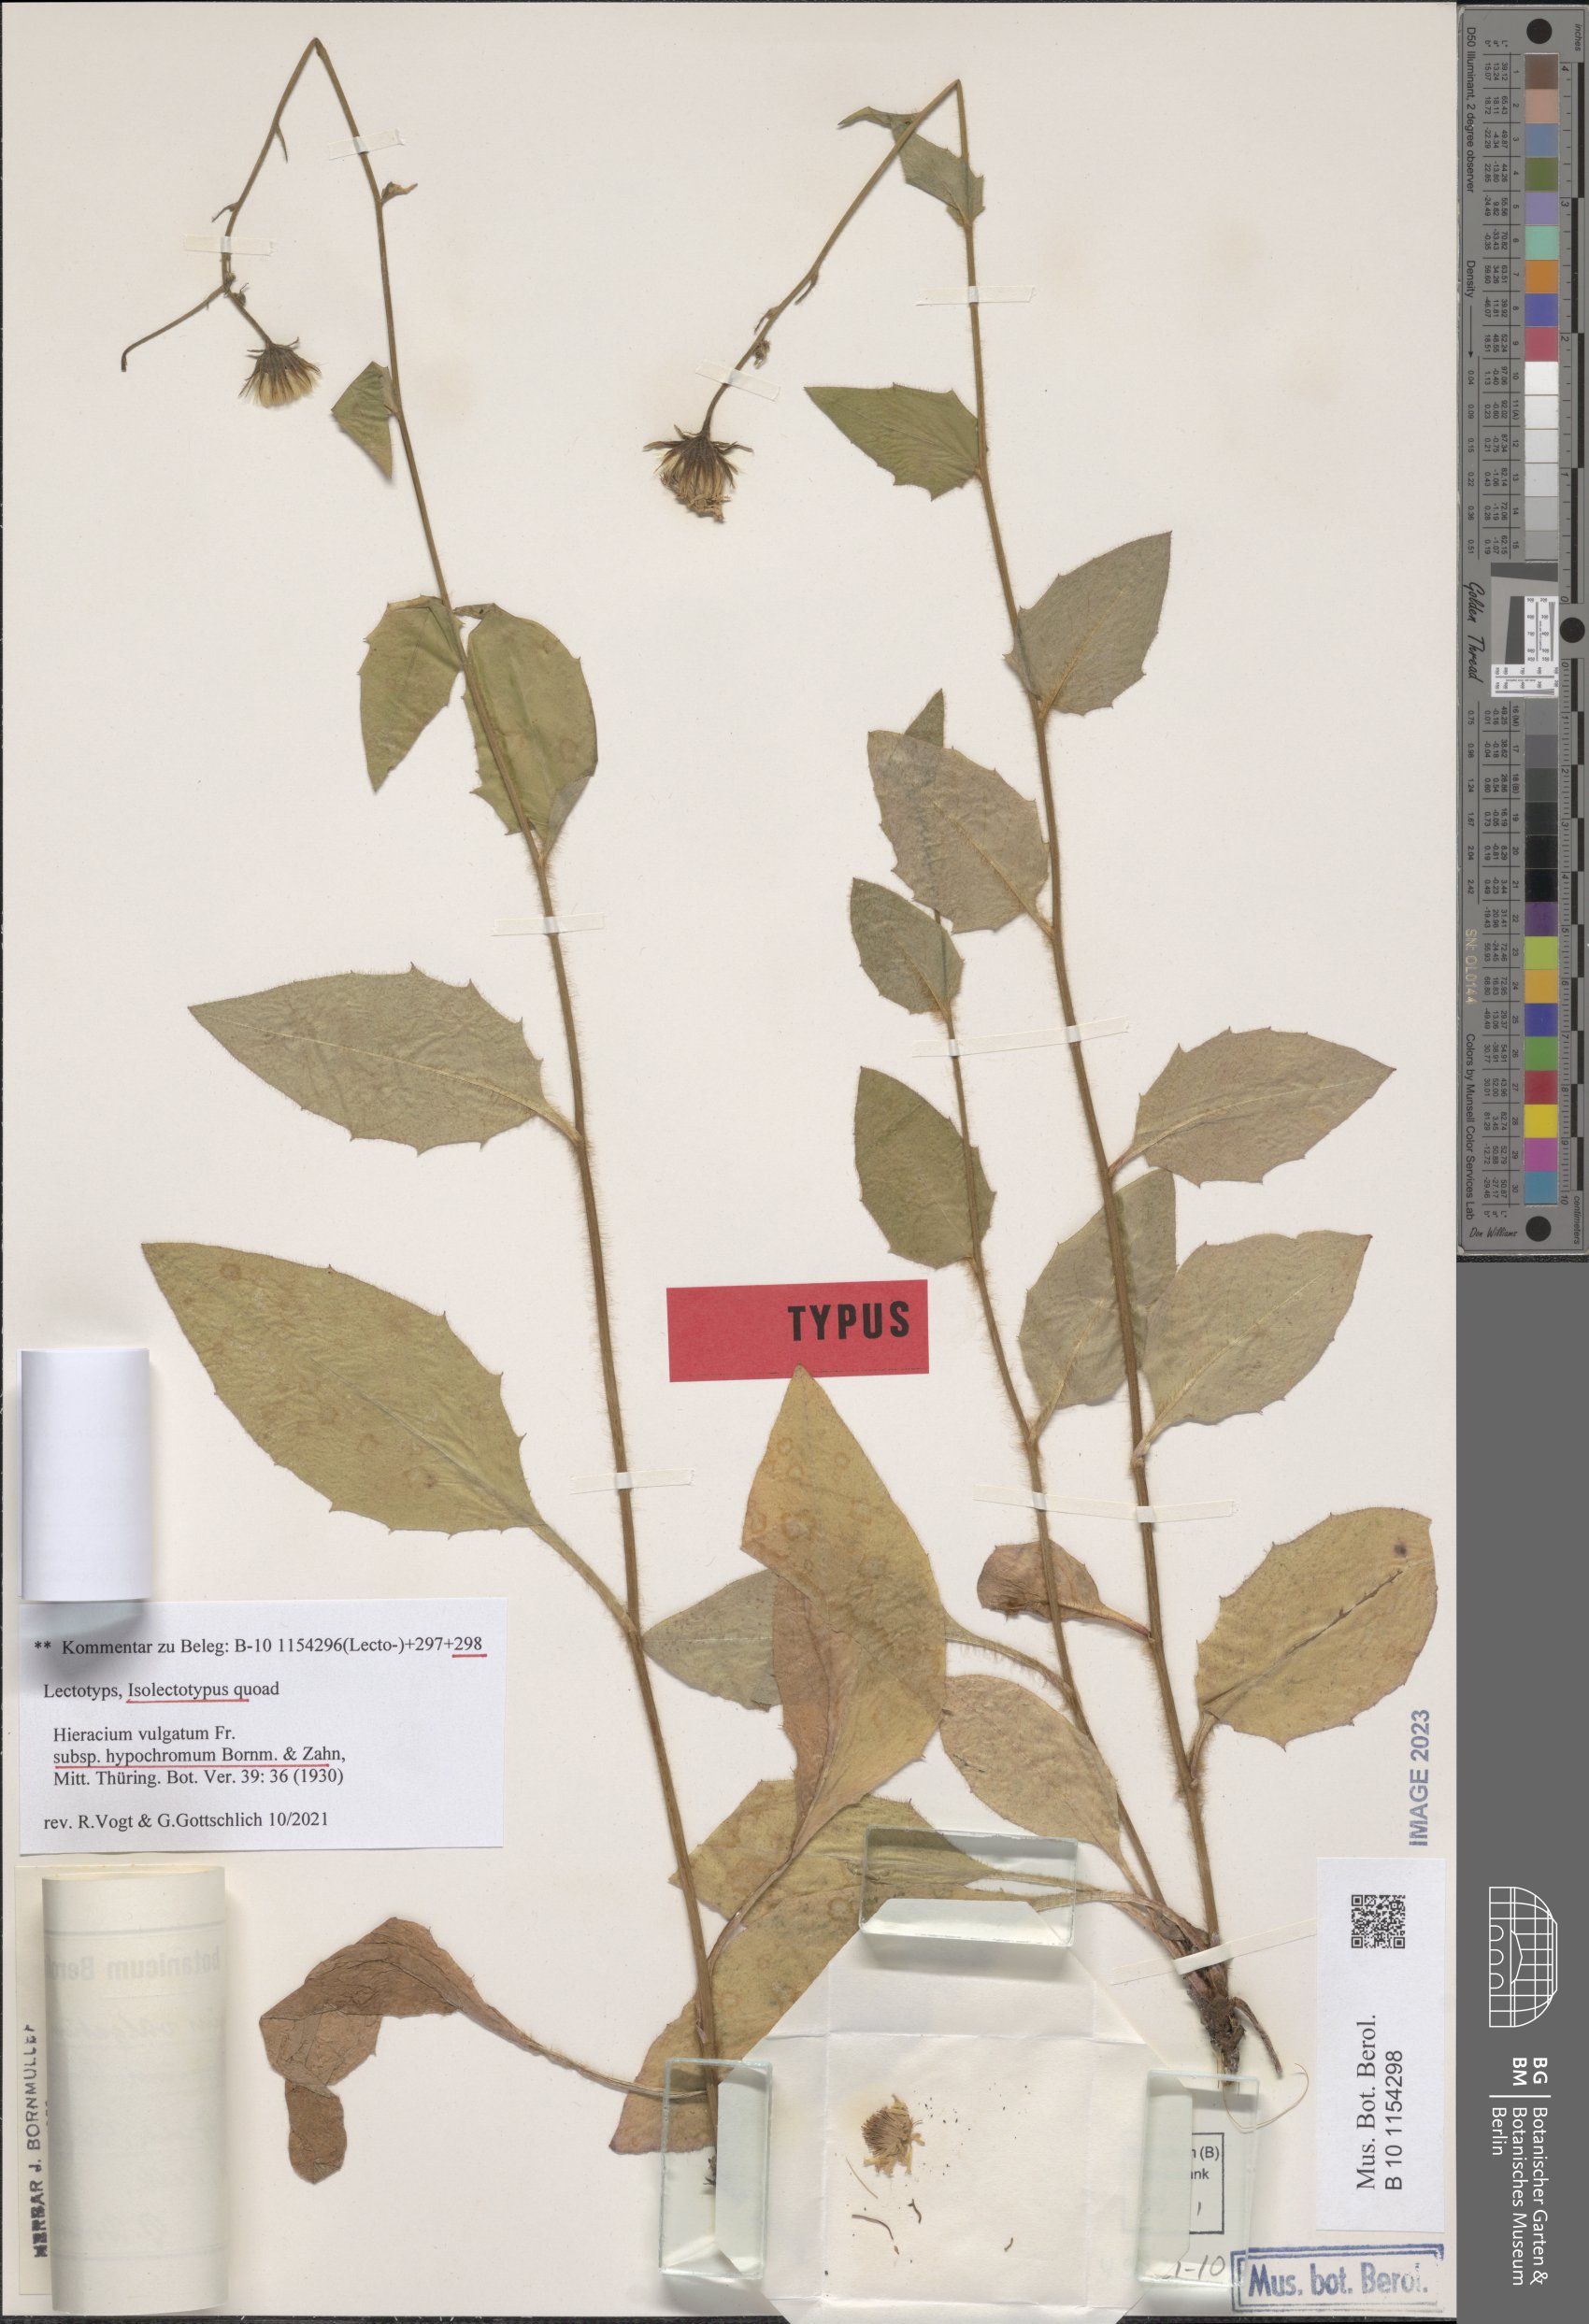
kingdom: Plantae
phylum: Tracheophyta
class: Magnoliopsida
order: Asterales
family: Asteraceae
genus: Hieracium
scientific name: Hieracium lachenalii
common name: Common hawkweed
